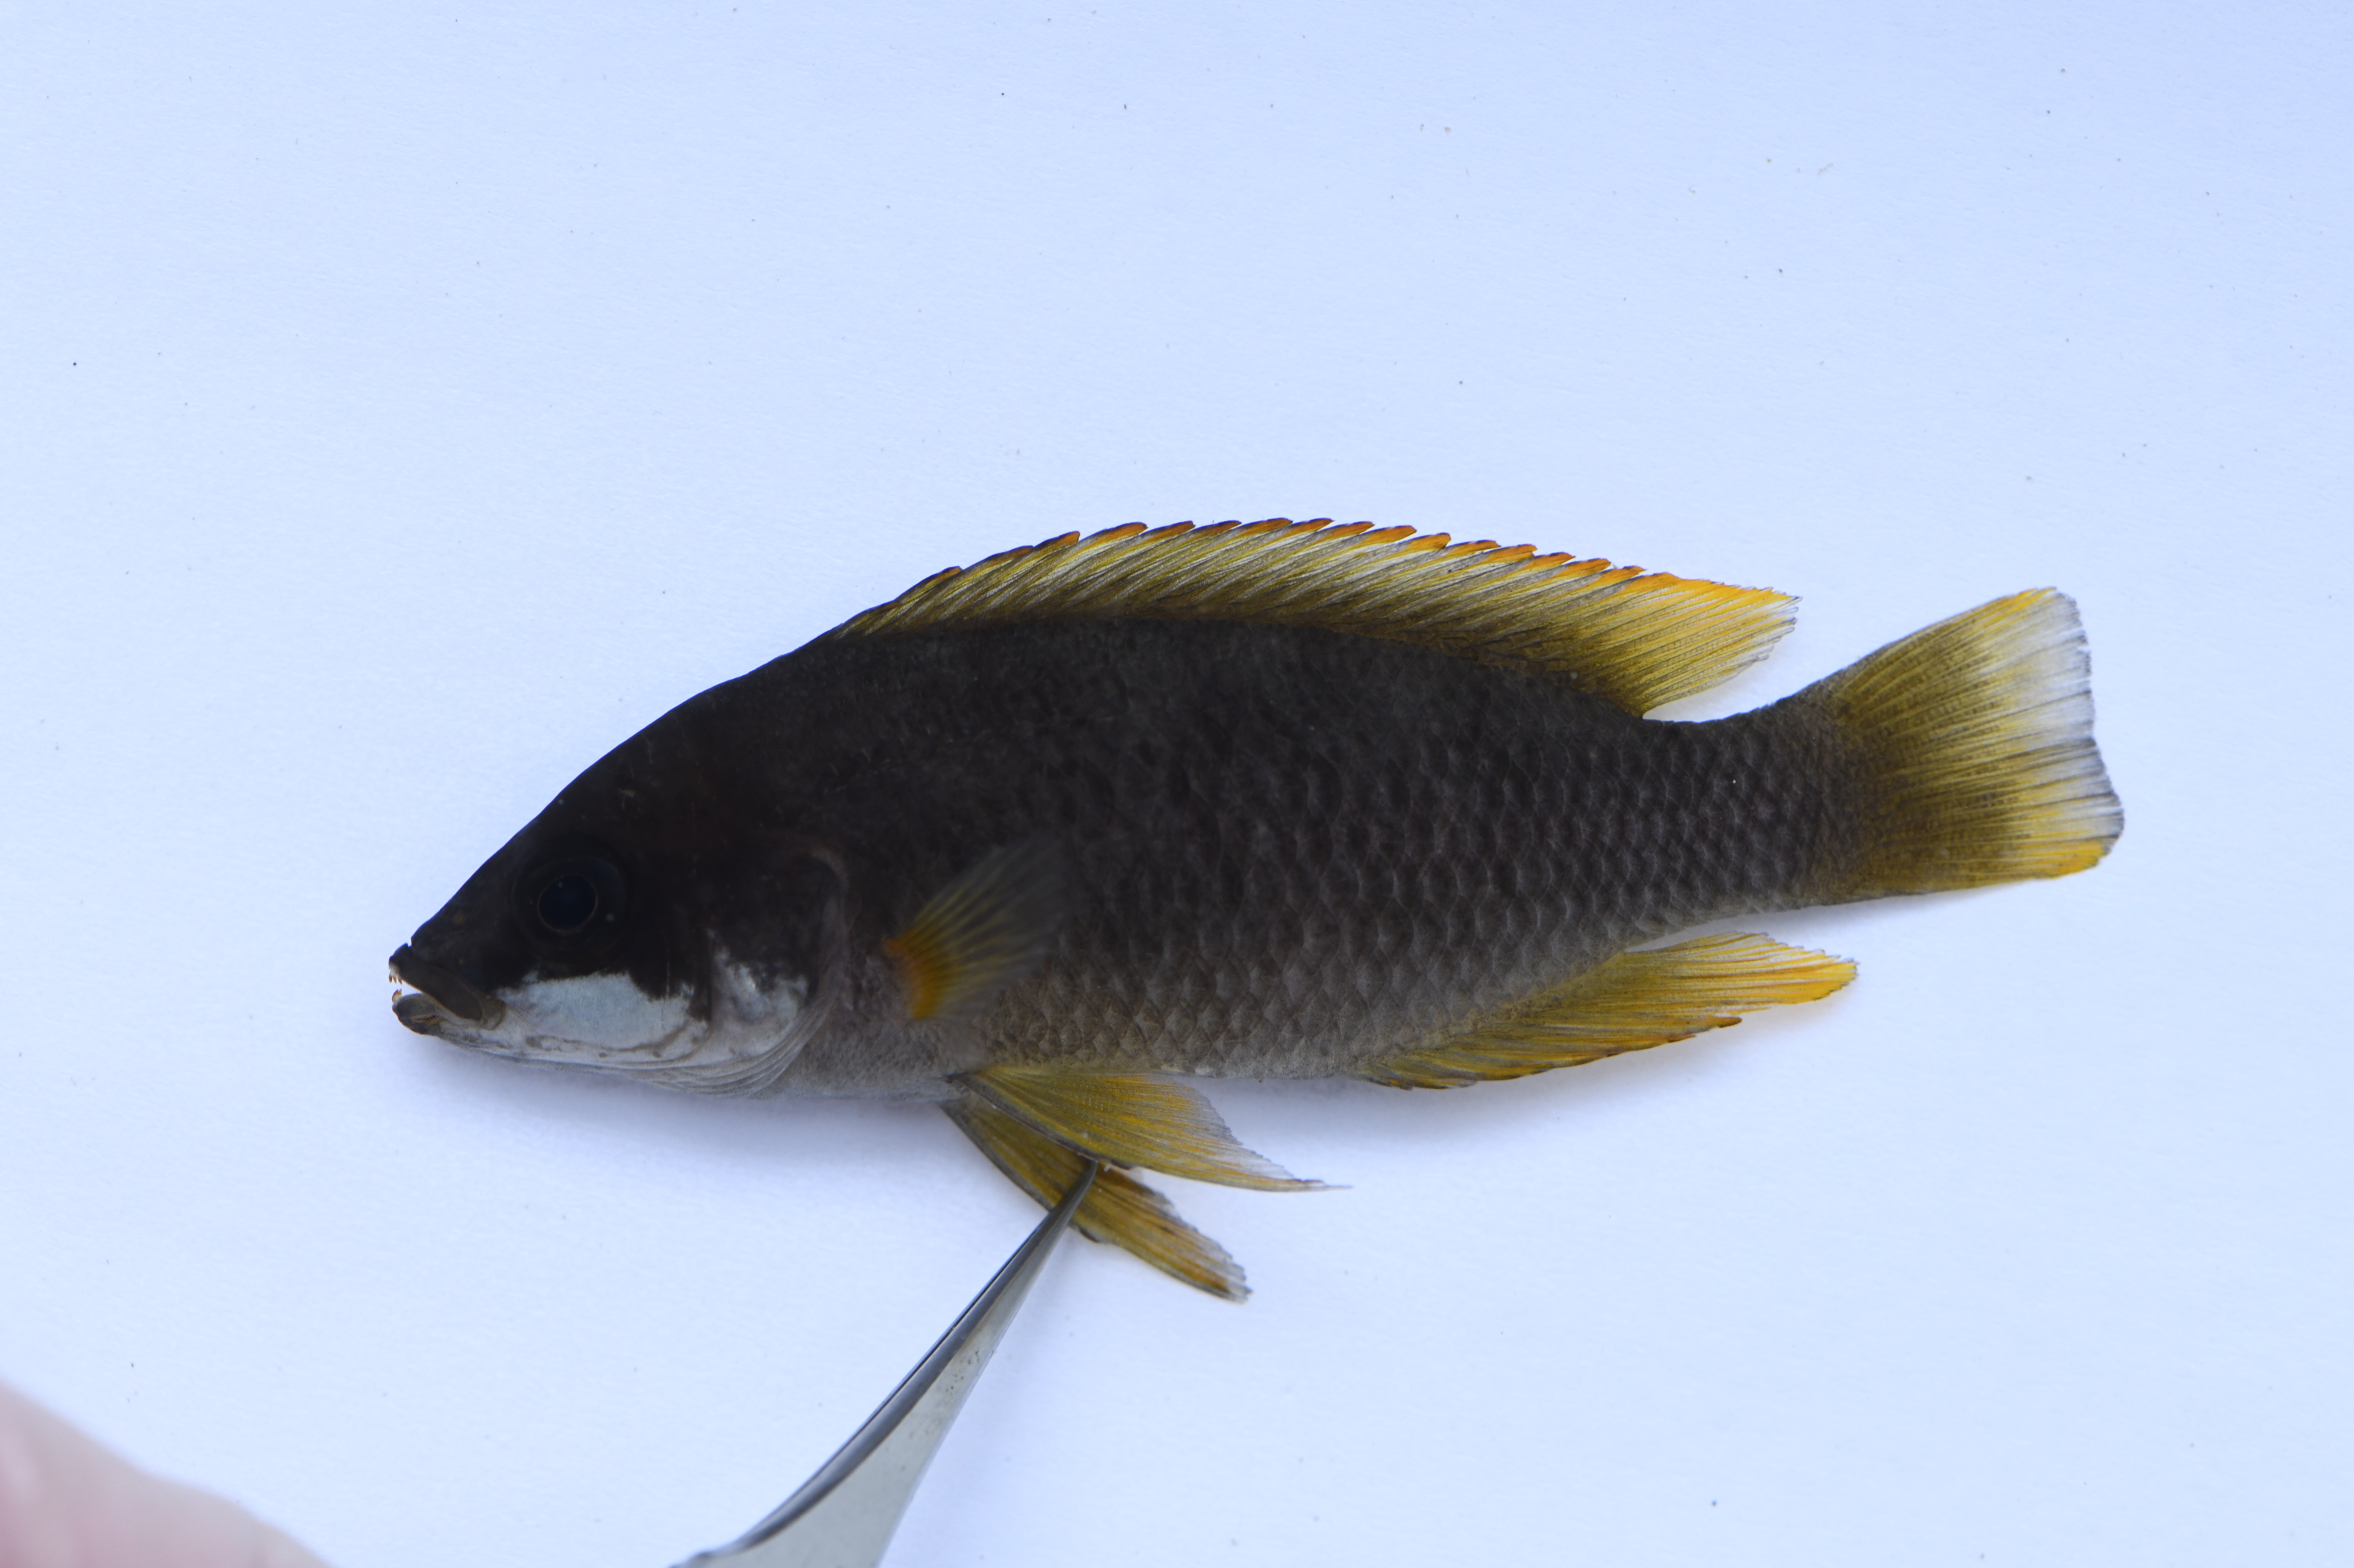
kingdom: Animalia
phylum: Chordata
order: Perciformes
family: Cichlidae
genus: Neolamprologus
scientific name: Neolamprologus mustax
